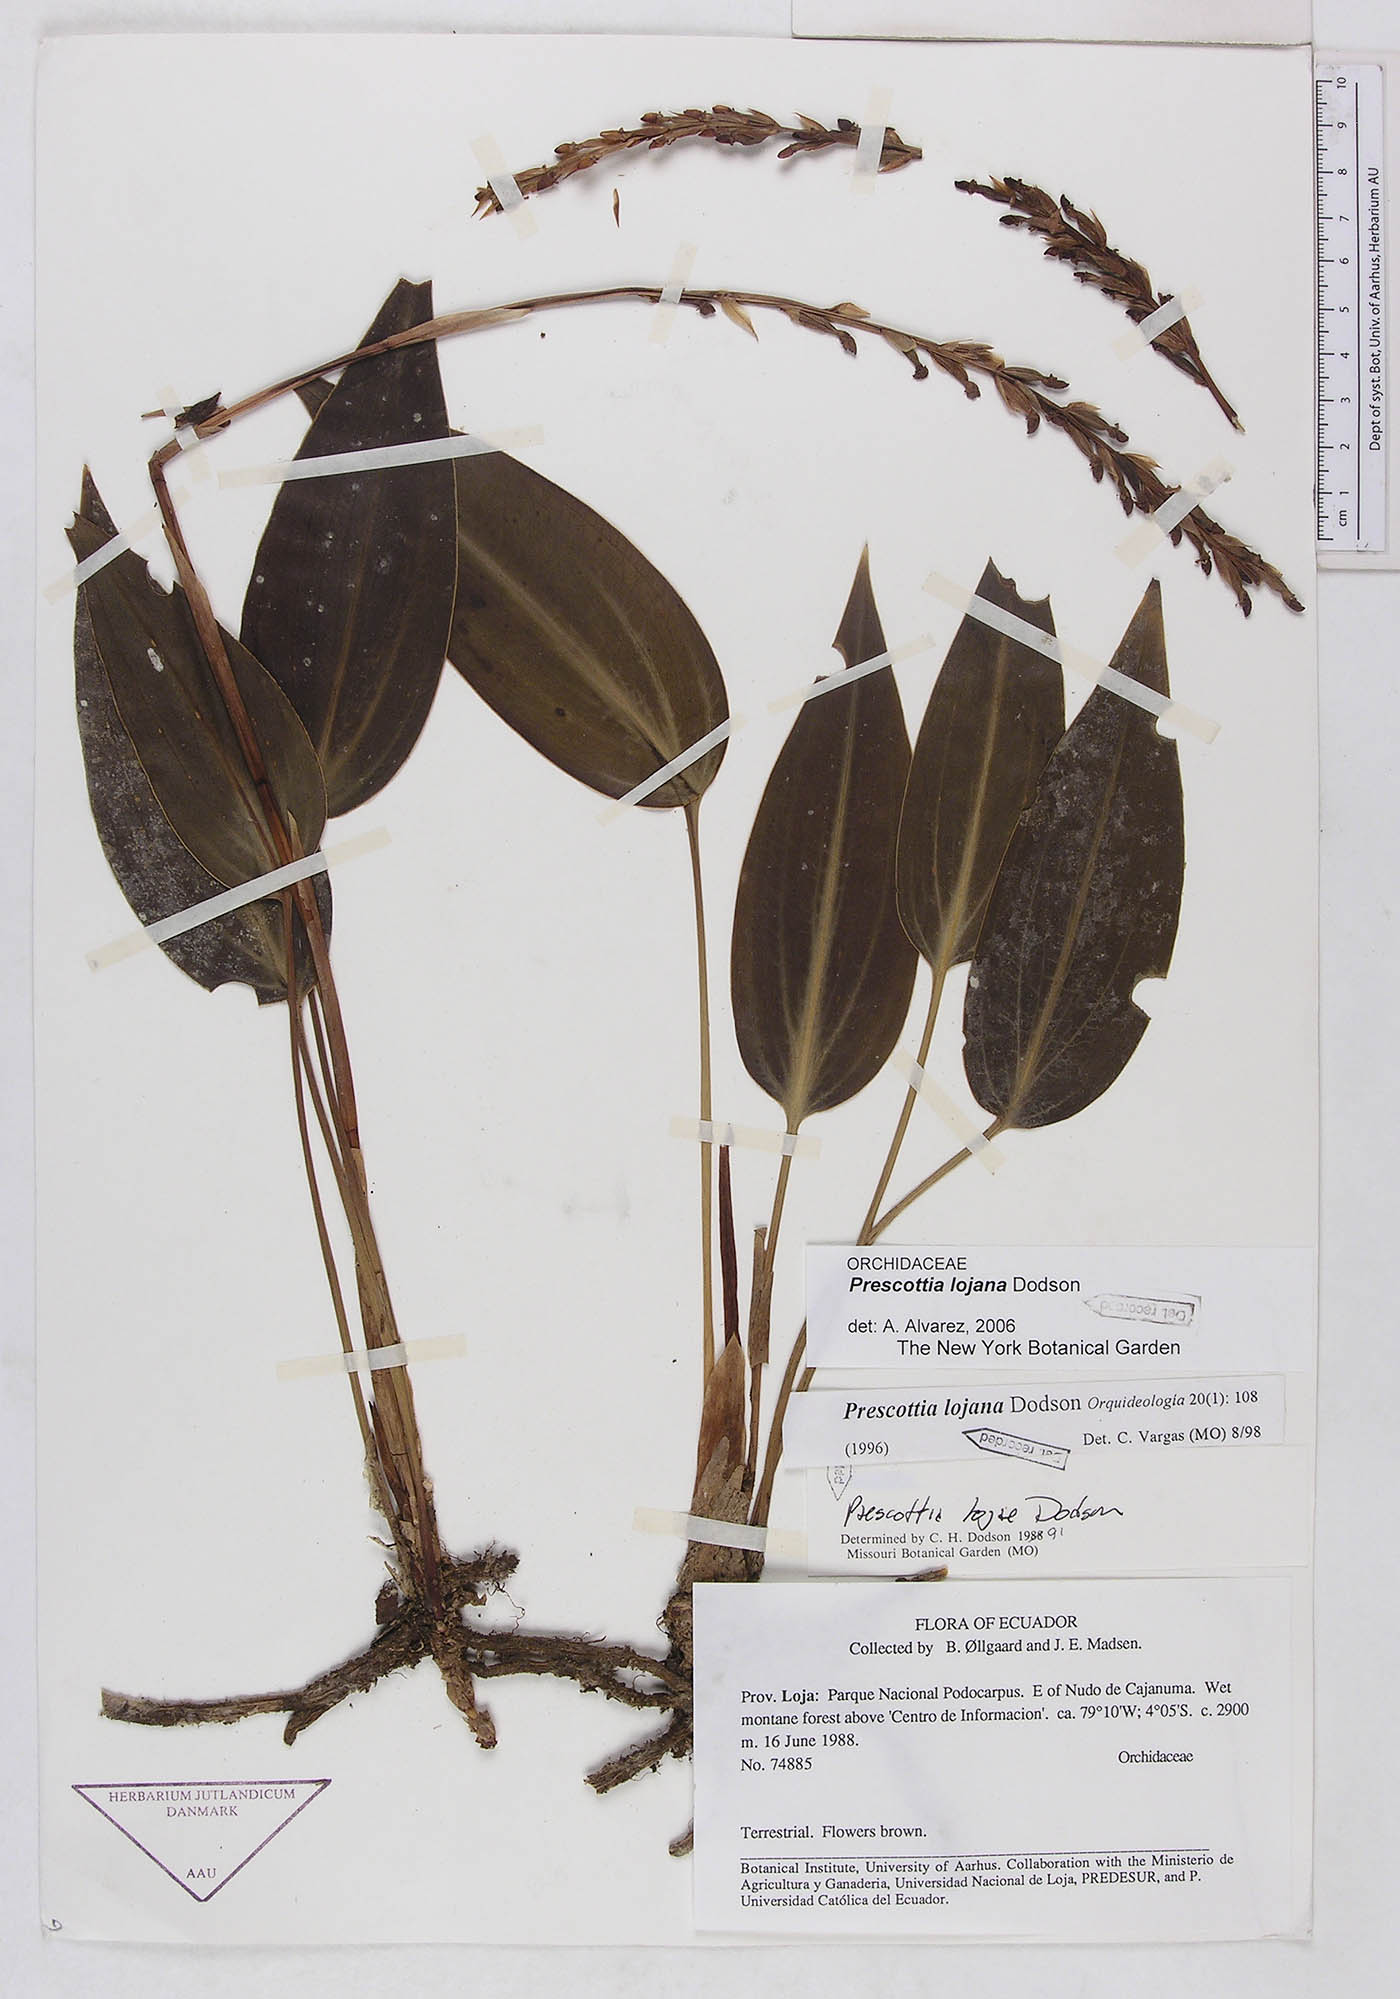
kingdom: Plantae
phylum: Tracheophyta
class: Liliopsida
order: Asparagales
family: Orchidaceae
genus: Prescottia
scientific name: Prescottia lojana
